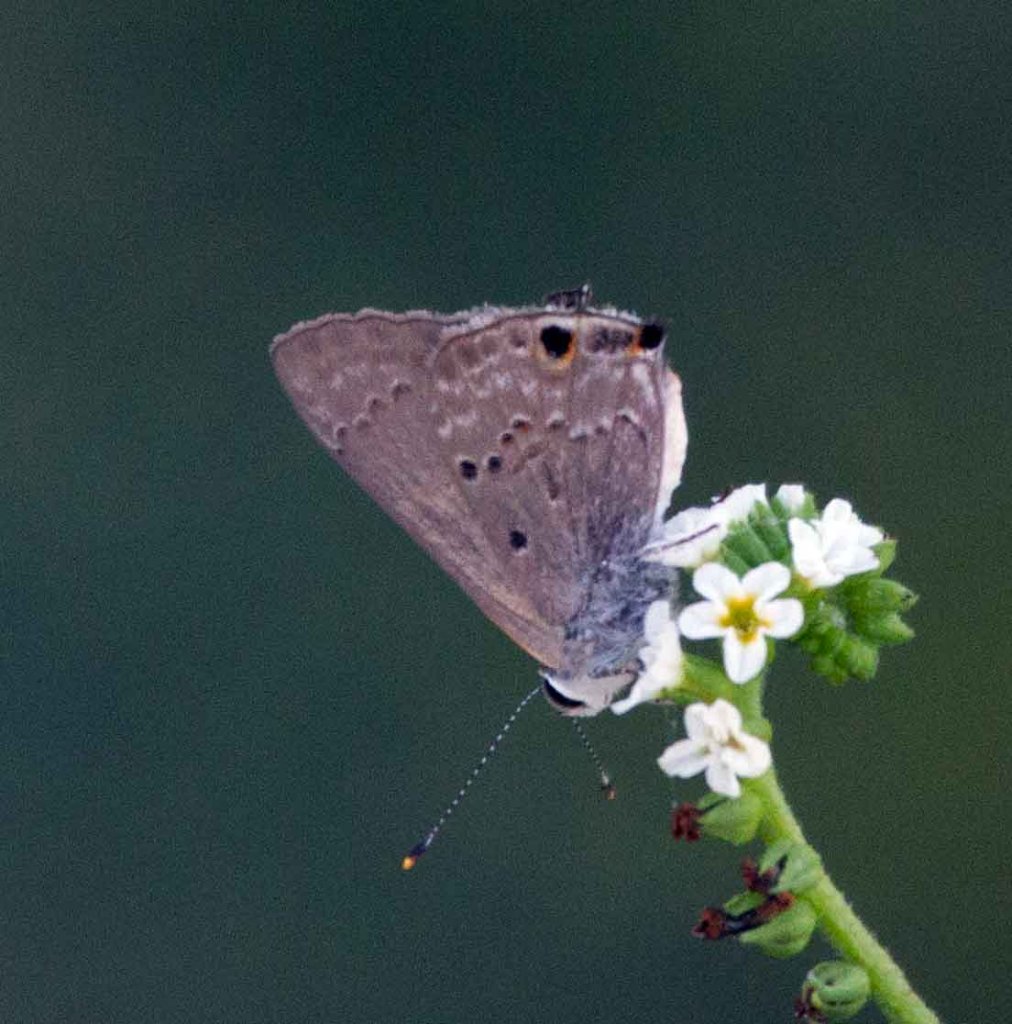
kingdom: Animalia
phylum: Arthropoda
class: Insecta
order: Lepidoptera
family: Lycaenidae
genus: Callicista
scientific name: Callicista columella
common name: Mallow Scrub-Hairstreak
